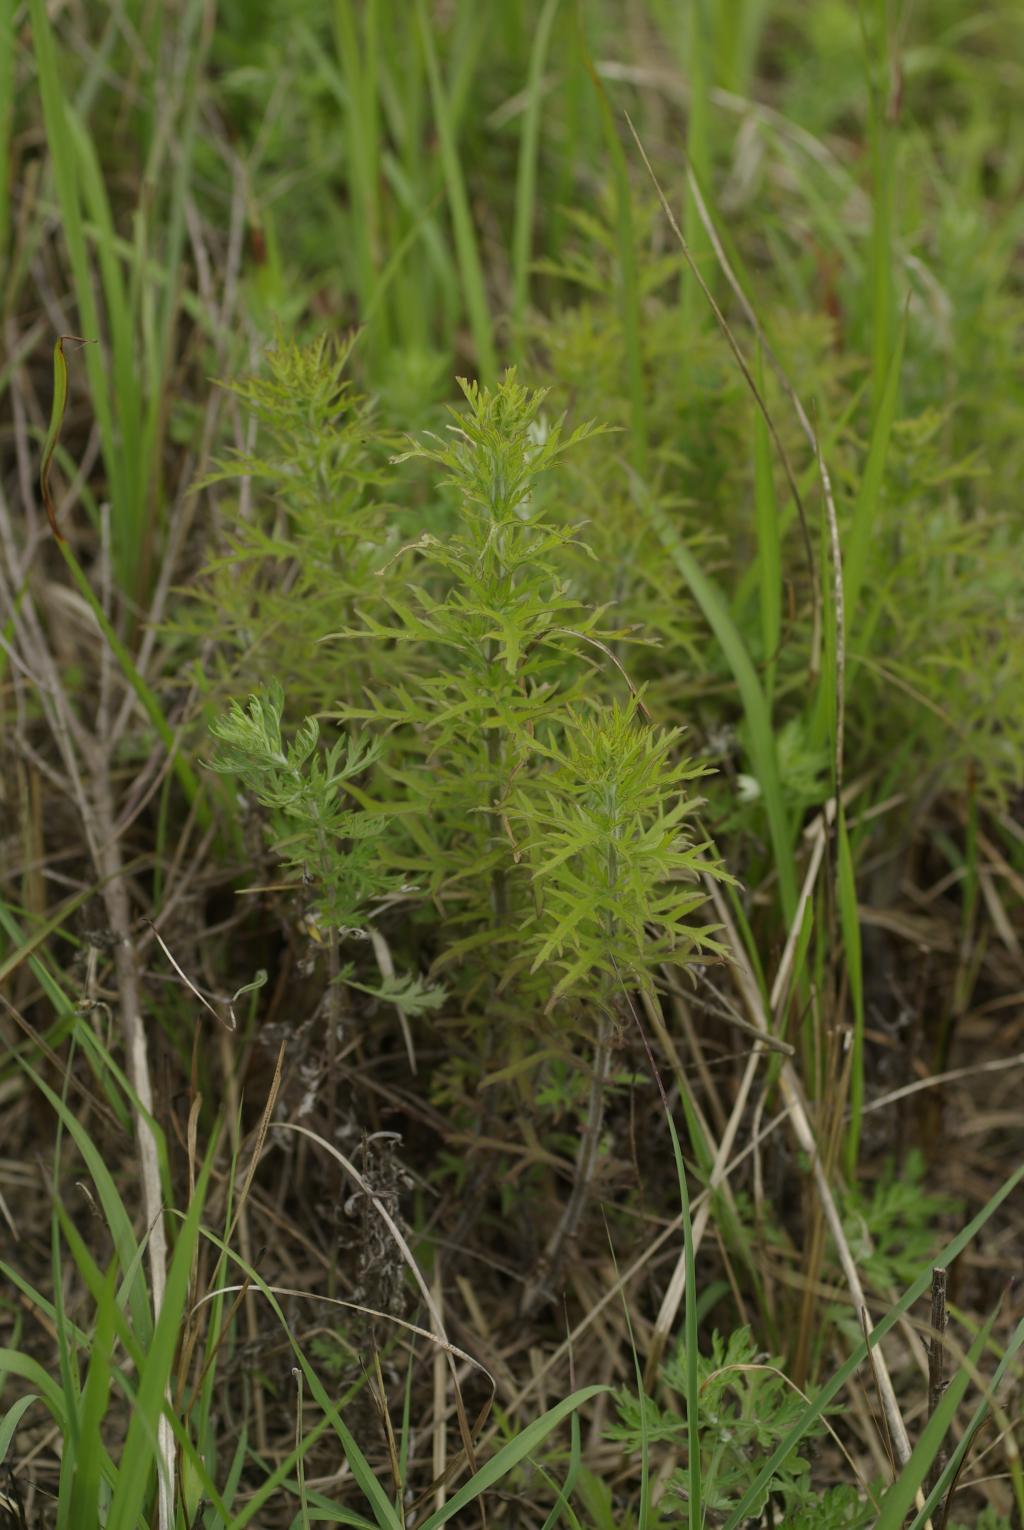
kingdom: Plantae
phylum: Tracheophyta
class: Magnoliopsida
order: Lamiales
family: Orobanchaceae
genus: Siphonostegia
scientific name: Siphonostegia chinensis
